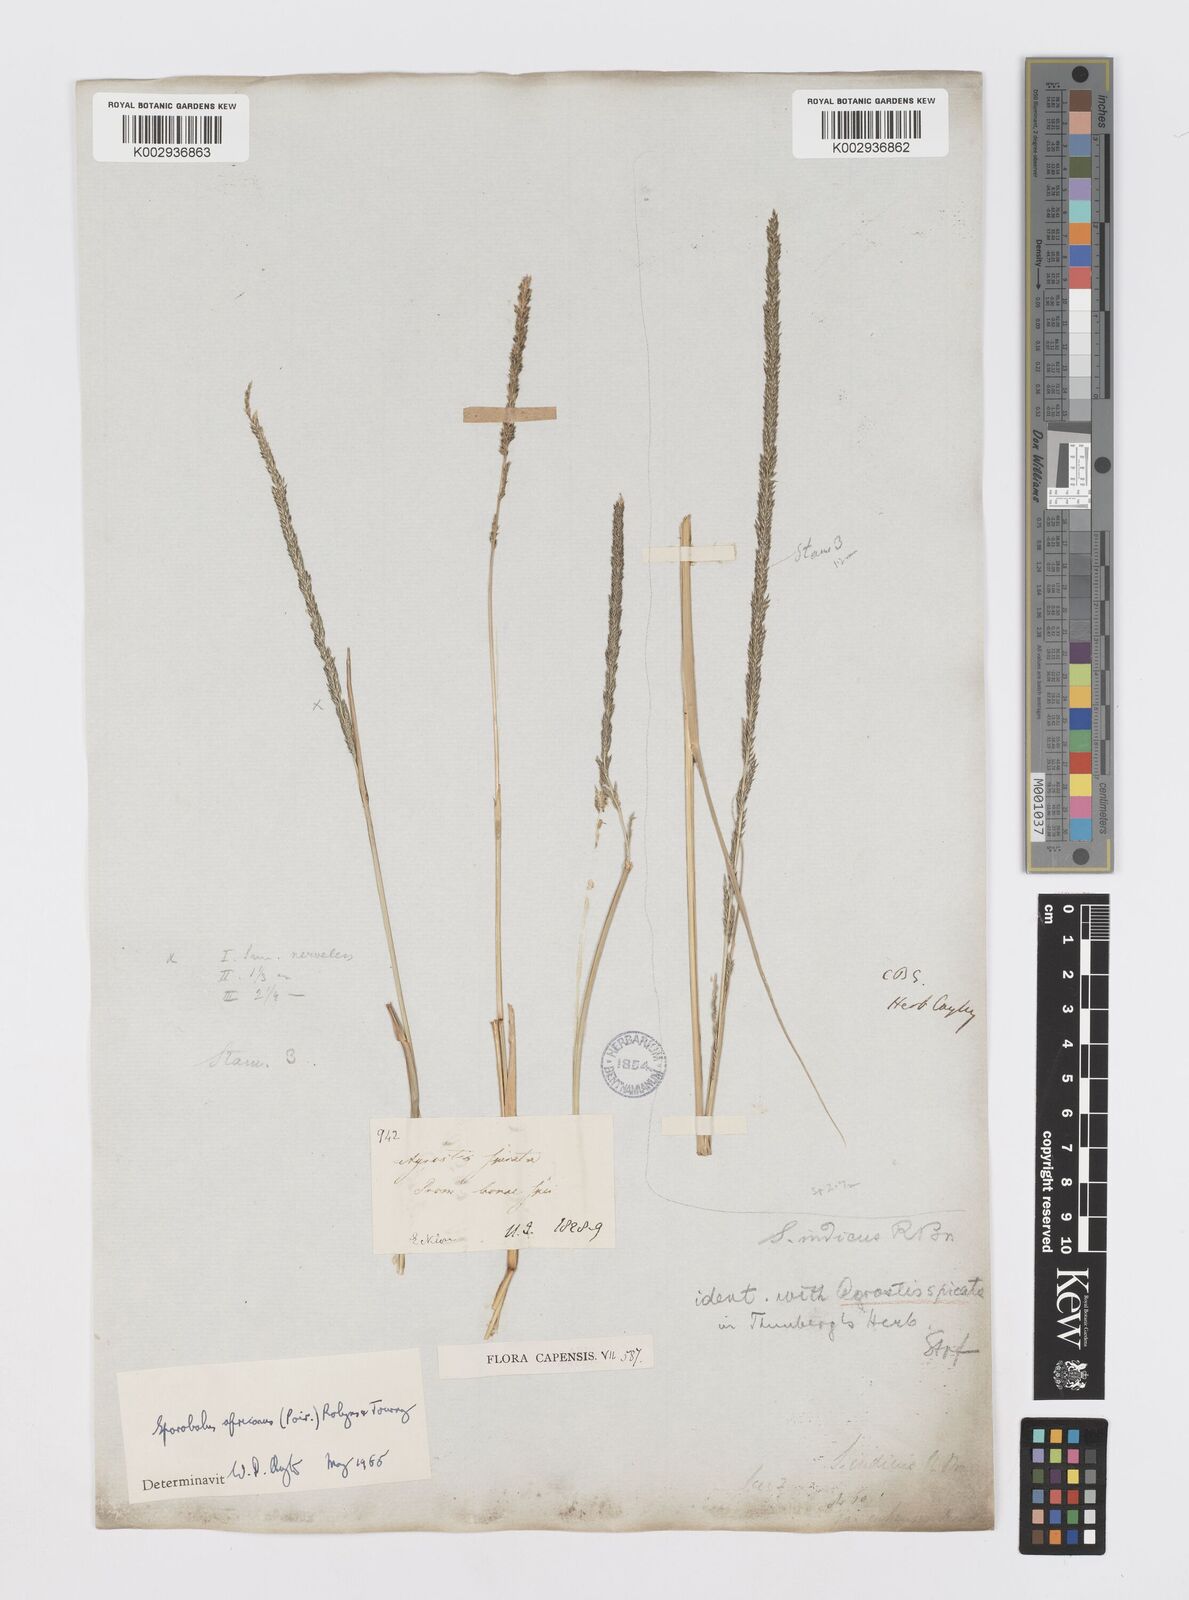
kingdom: Plantae
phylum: Tracheophyta
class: Liliopsida
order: Poales
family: Poaceae
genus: Sporobolus
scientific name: Sporobolus africanus
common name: African dropseed
